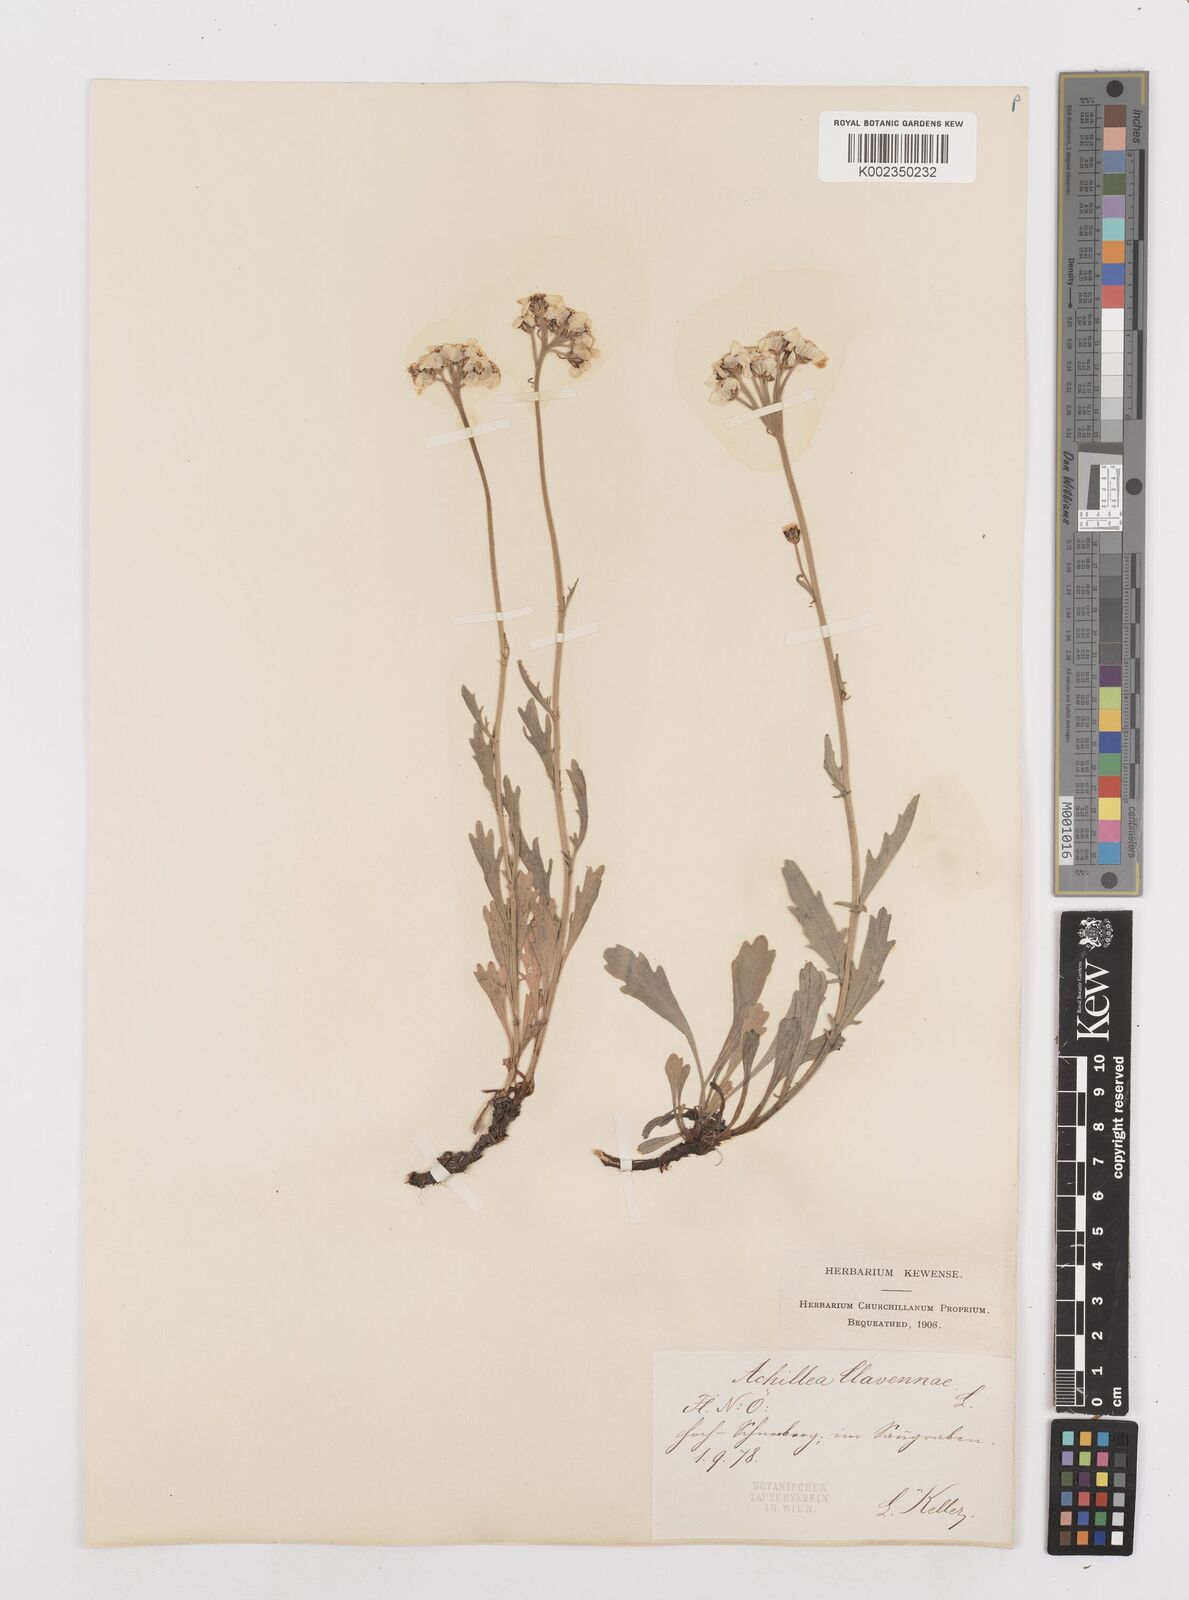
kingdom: Plantae
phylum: Tracheophyta
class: Magnoliopsida
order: Asterales
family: Asteraceae
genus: Achillea
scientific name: Achillea clavennae
